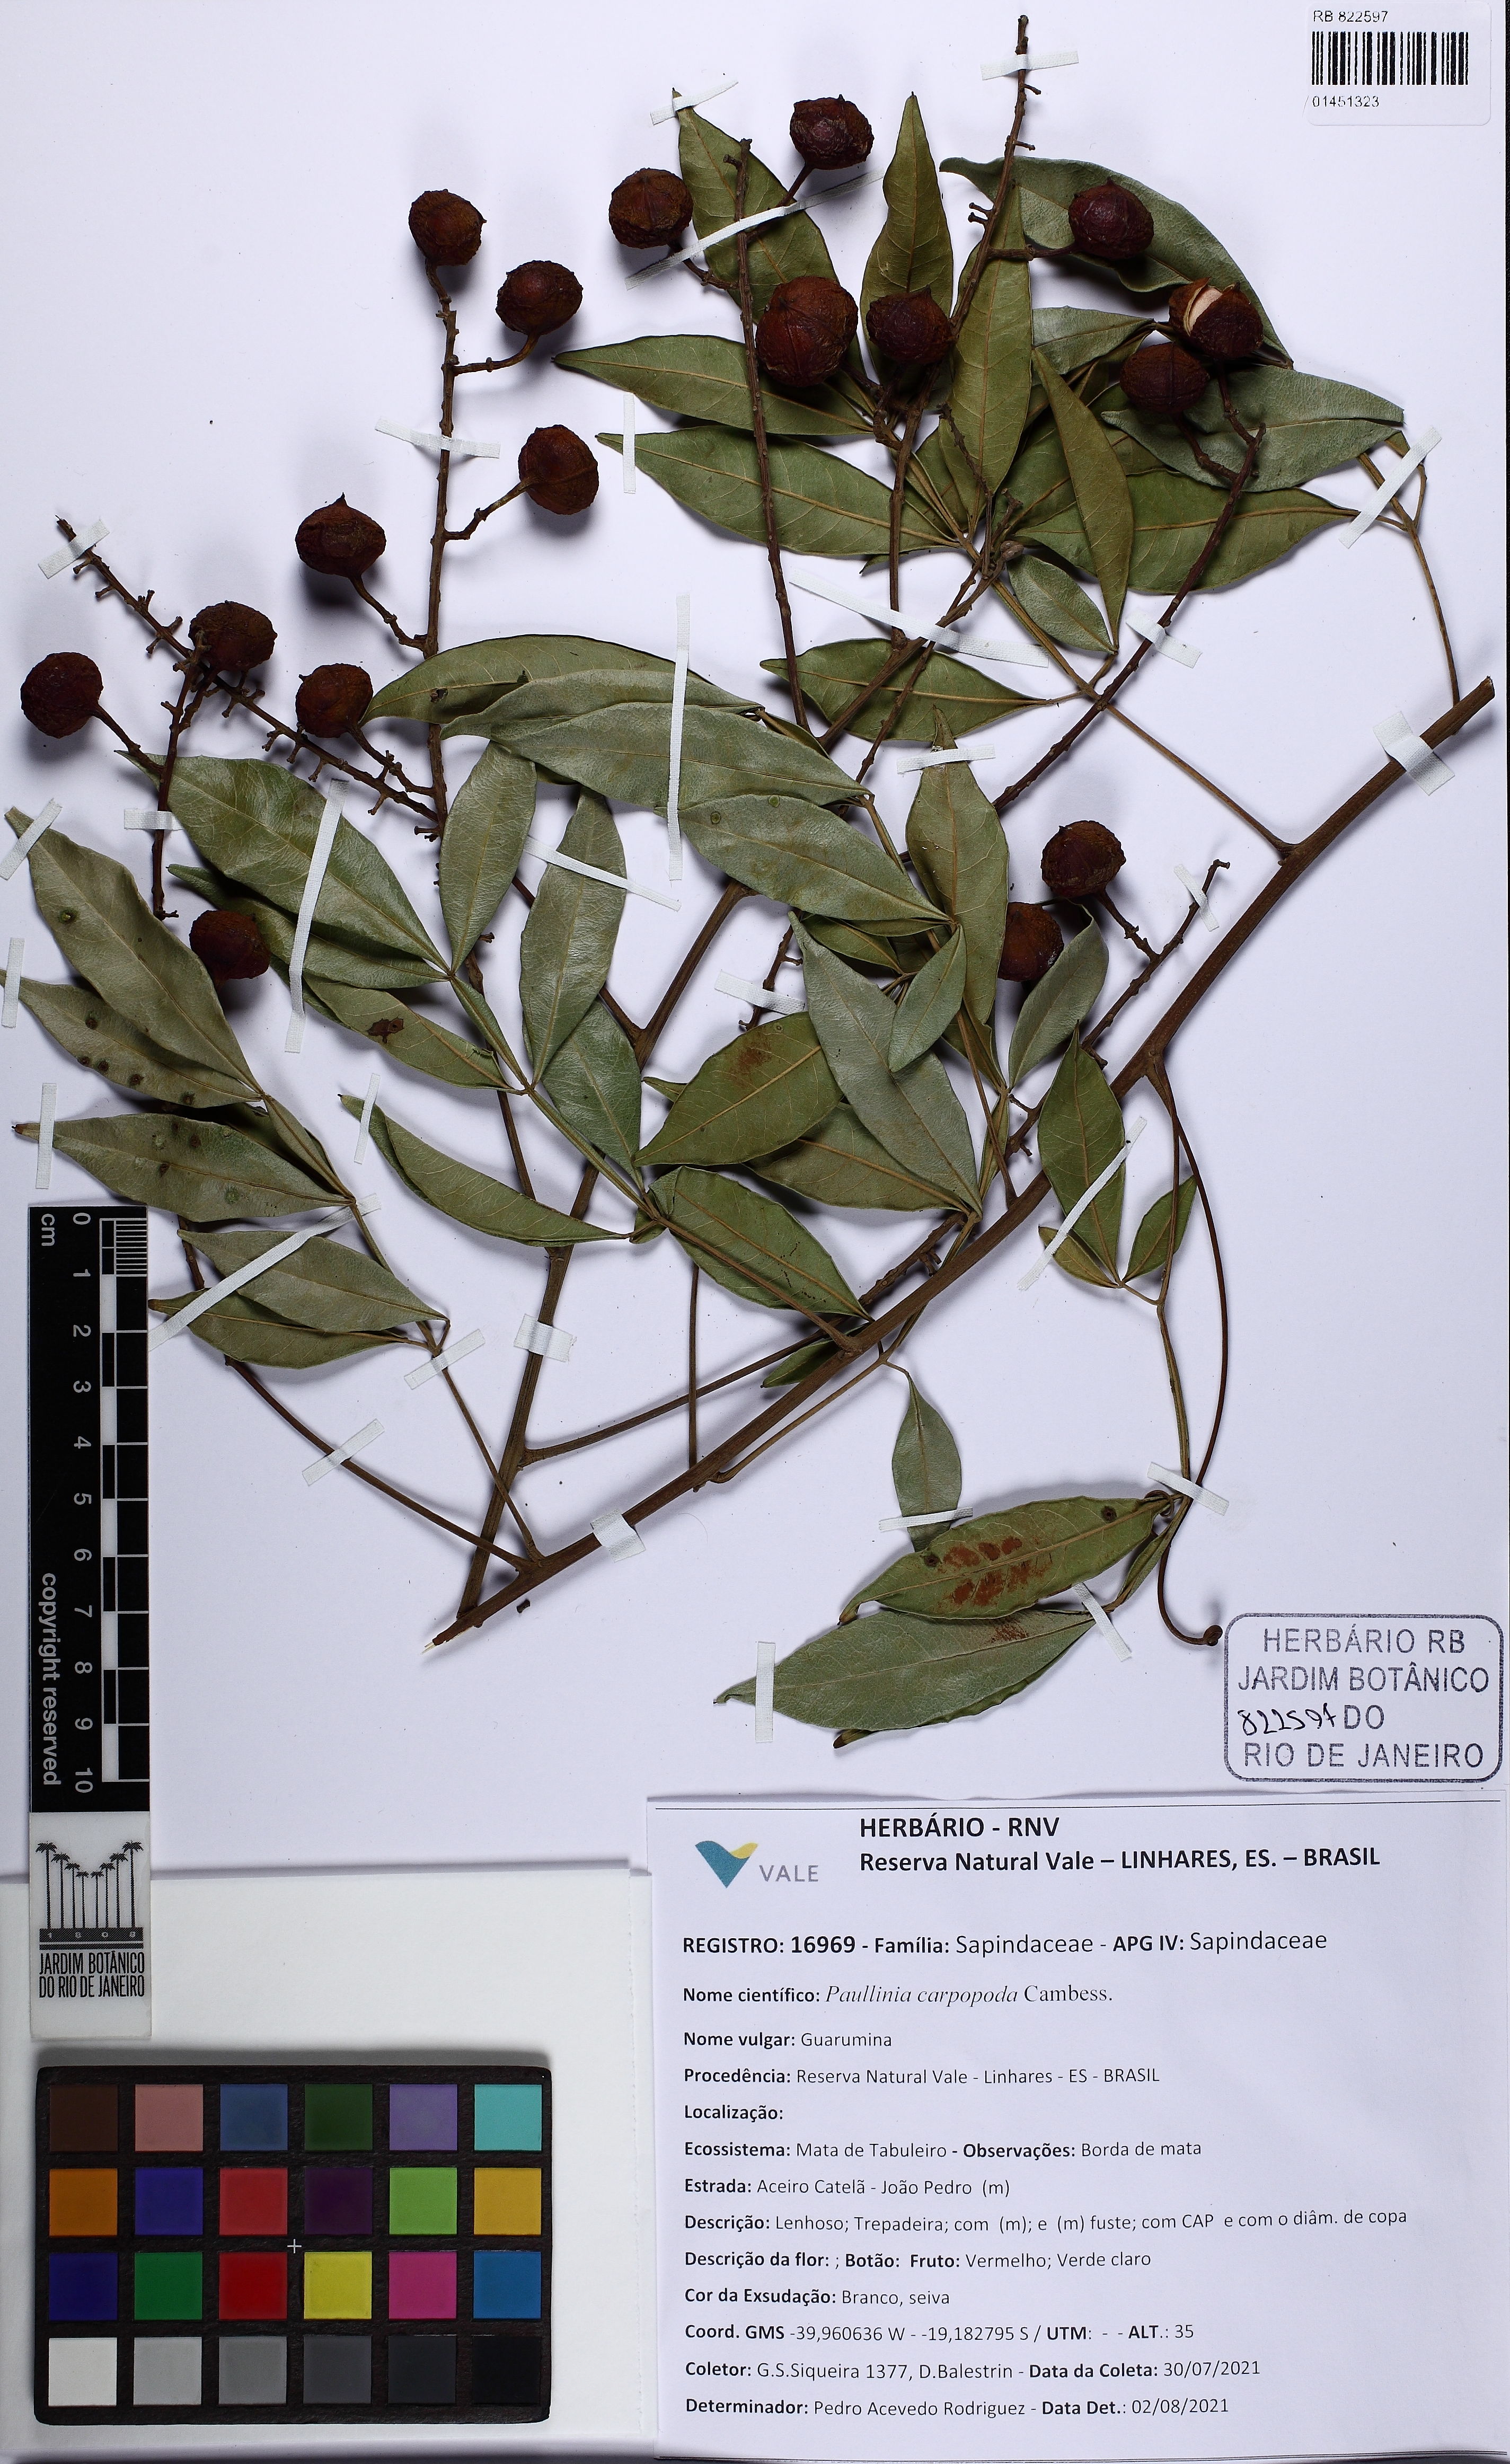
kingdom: Plantae
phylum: Tracheophyta
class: Magnoliopsida
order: Sapindales
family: Sapindaceae
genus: Paullinia
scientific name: Paullinia carpopodea
